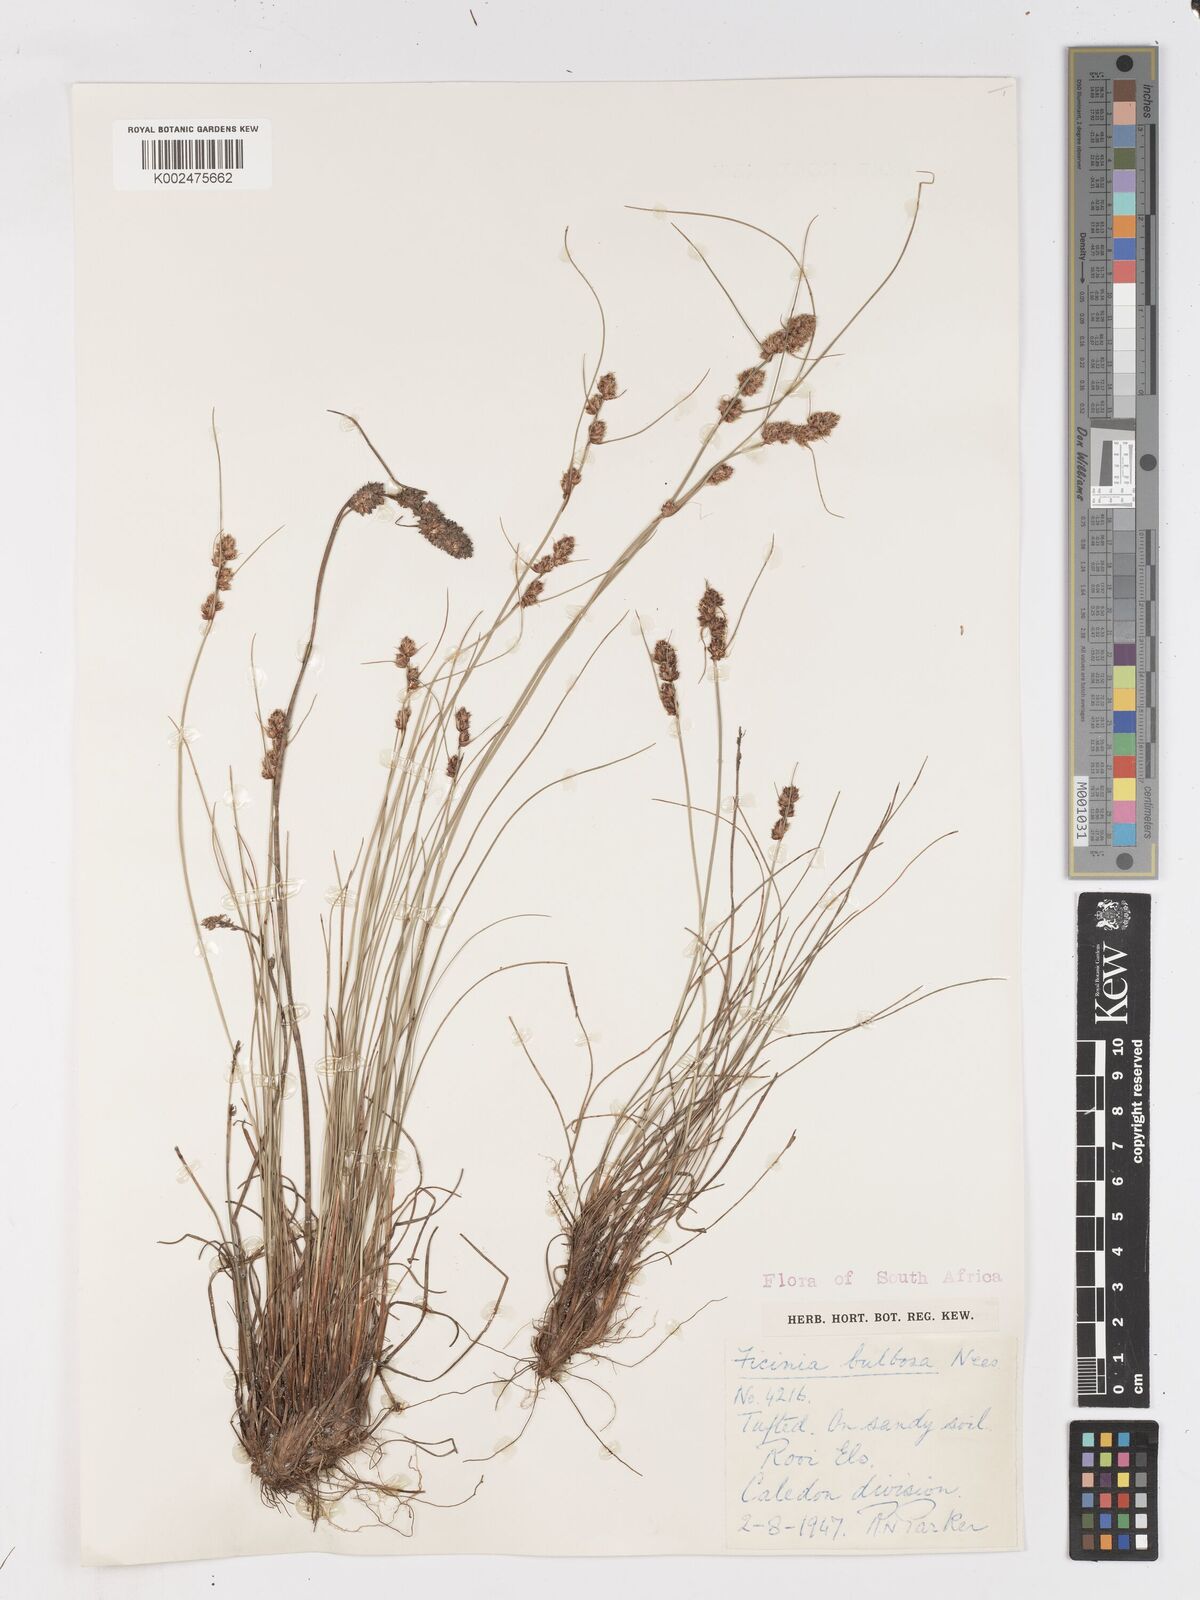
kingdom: Plantae
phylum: Tracheophyta
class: Liliopsida
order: Poales
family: Cyperaceae
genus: Ficinia
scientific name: Ficinia bulbosa
